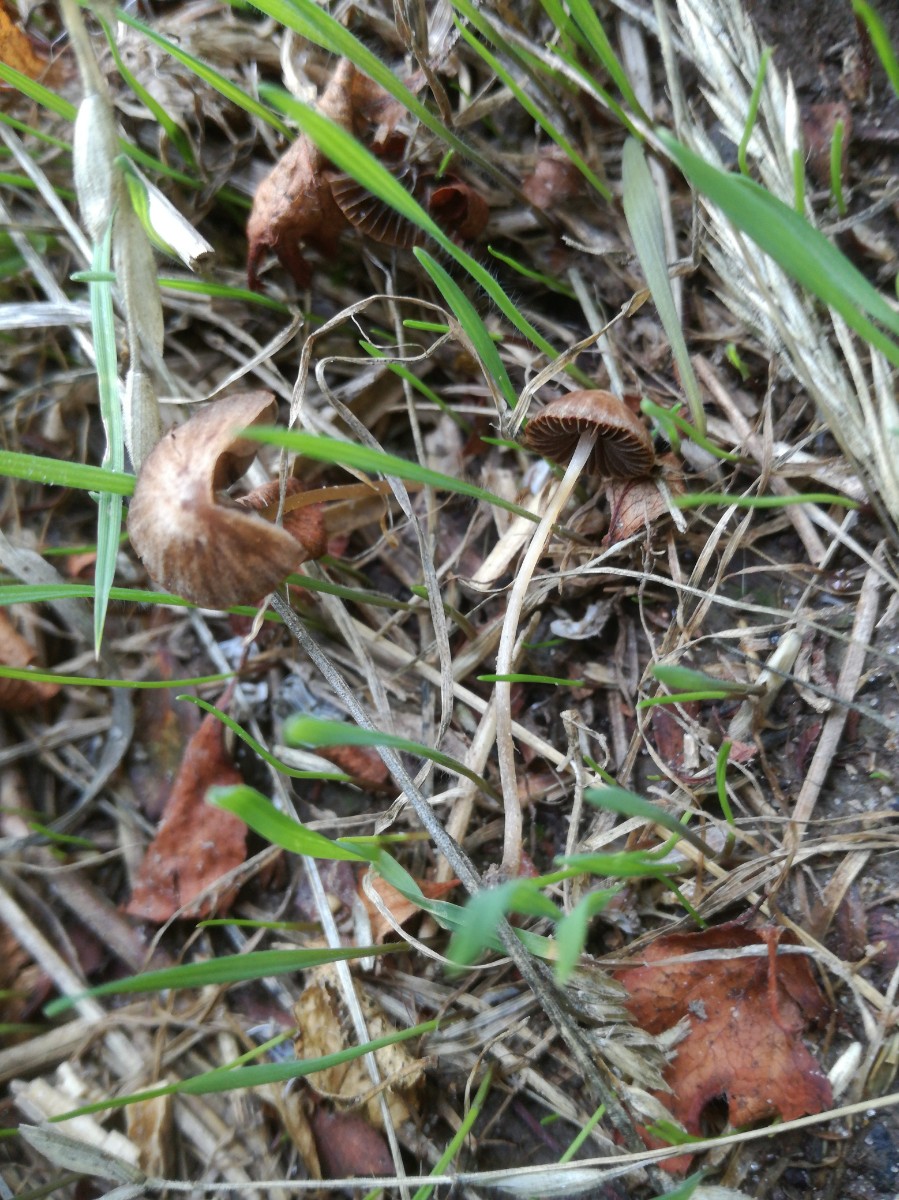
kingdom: Fungi
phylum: Basidiomycota
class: Agaricomycetes
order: Agaricales
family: Psathyrellaceae
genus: Psathyrella
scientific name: Psathyrella complutensis
